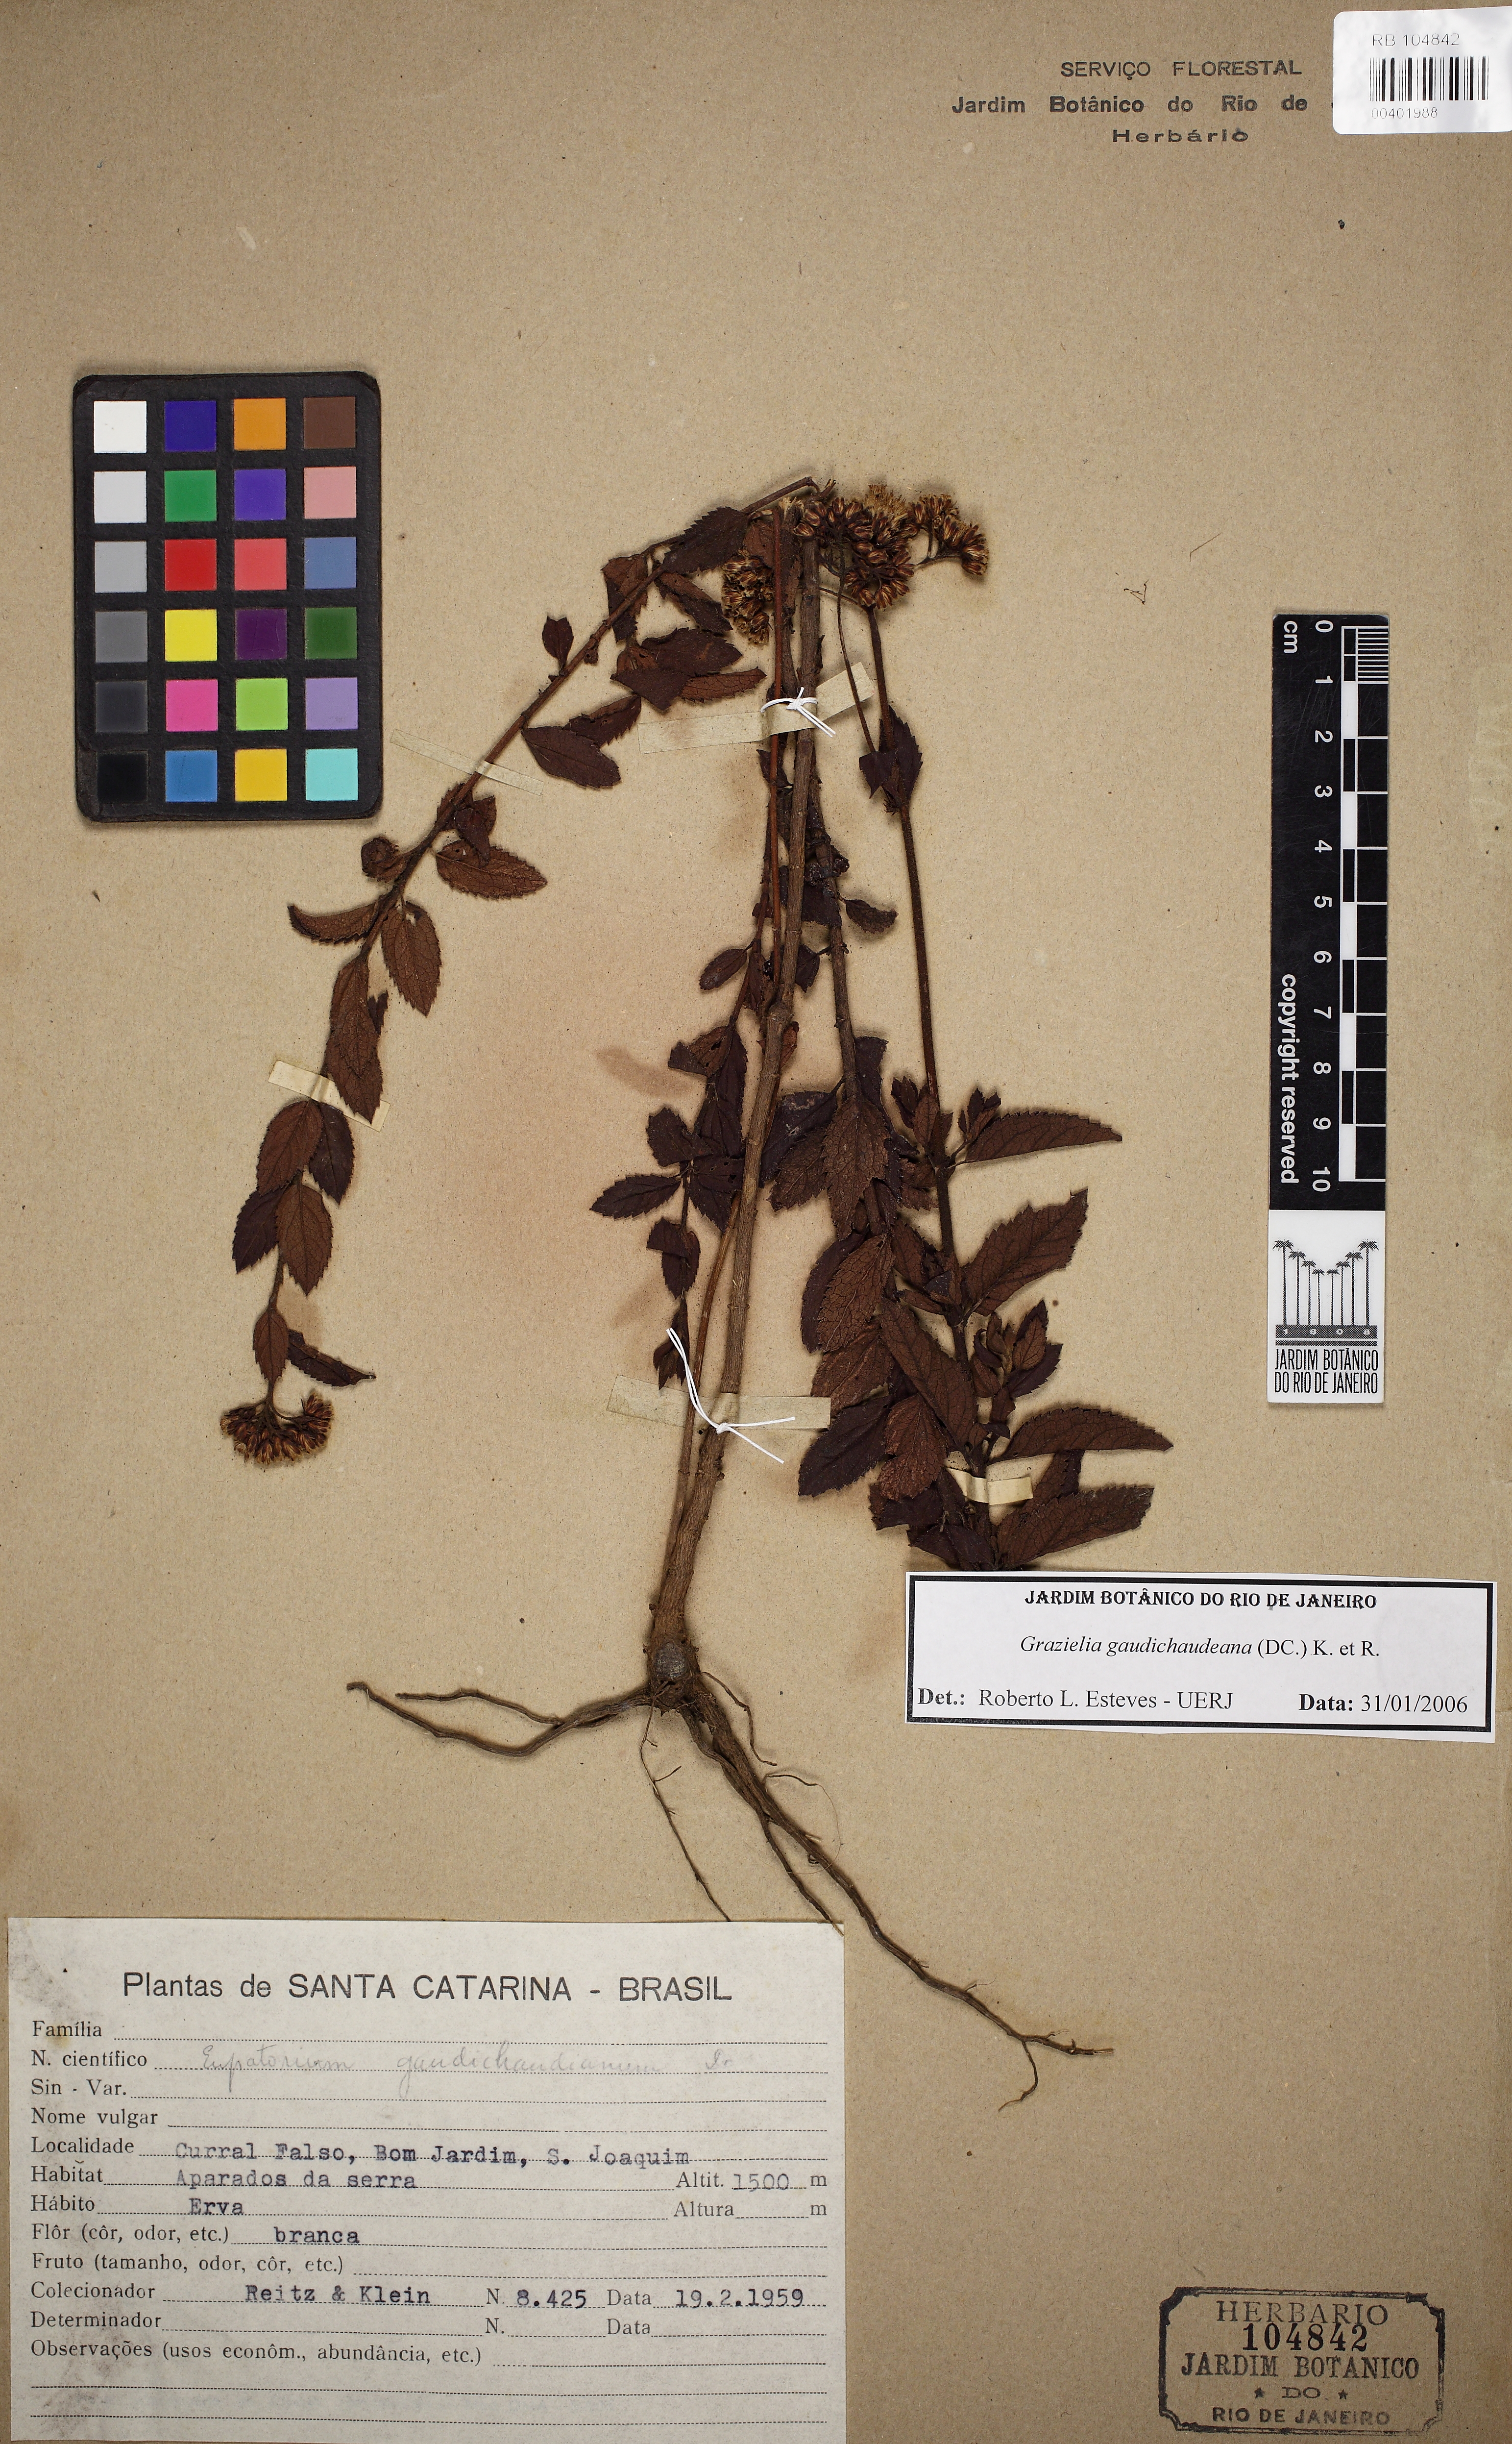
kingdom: Plantae
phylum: Tracheophyta
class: Magnoliopsida
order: Asterales
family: Asteraceae
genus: Grazielia
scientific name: Grazielia gaudichaudiana
